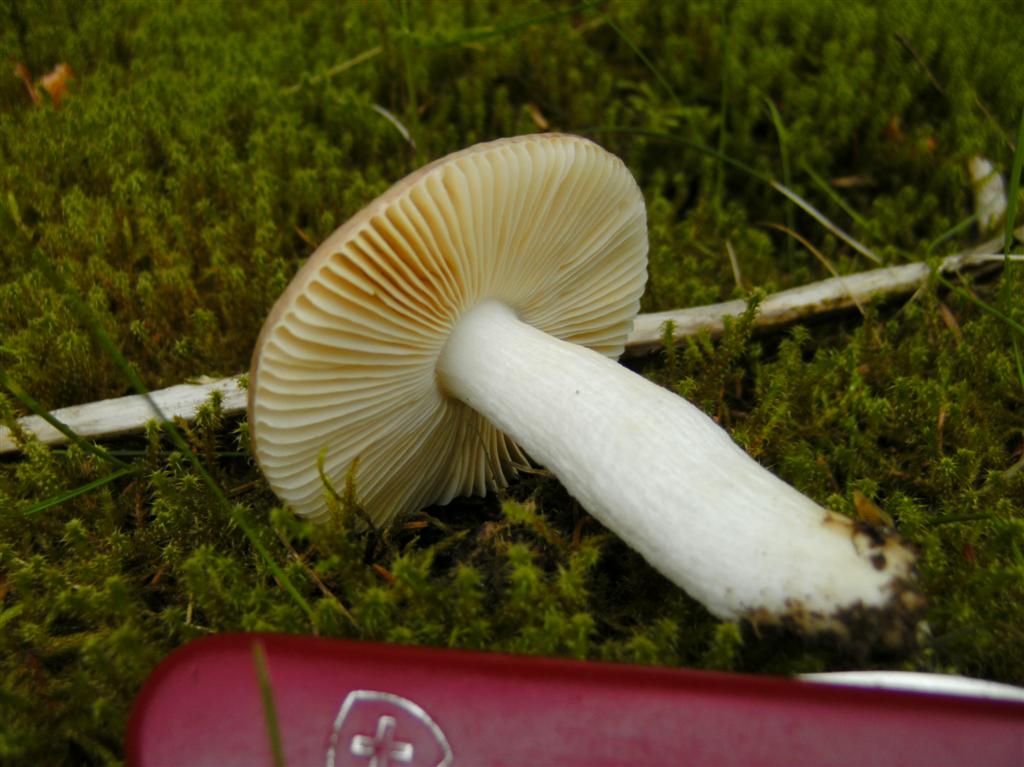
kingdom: Fungi
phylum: Basidiomycota
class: Agaricomycetes
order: Russulales
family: Russulaceae
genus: Russula
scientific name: Russula nauseosa
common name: spinkel skørhat
